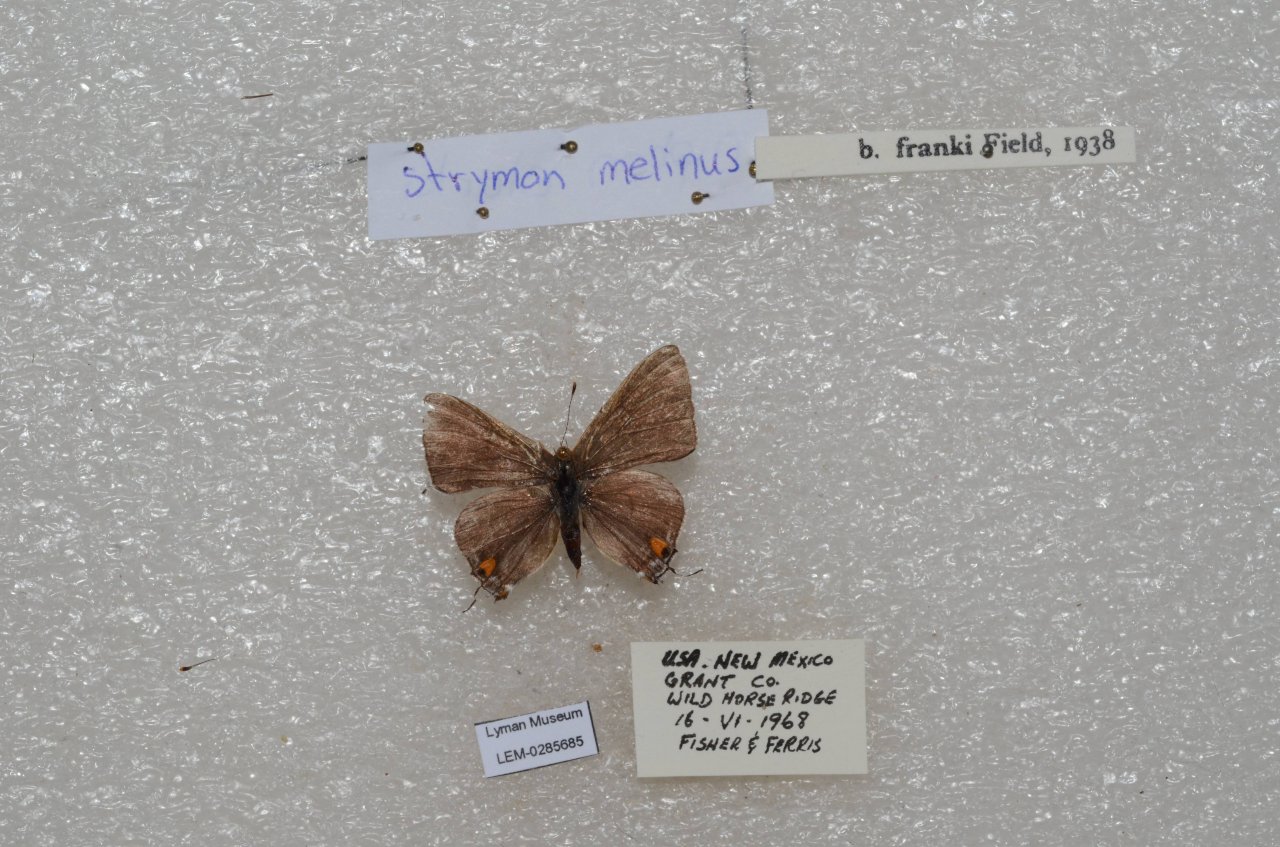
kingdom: Animalia
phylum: Arthropoda
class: Insecta
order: Lepidoptera
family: Lycaenidae
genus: Strymon
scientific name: Strymon melinus
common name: Gray Hairstreak
